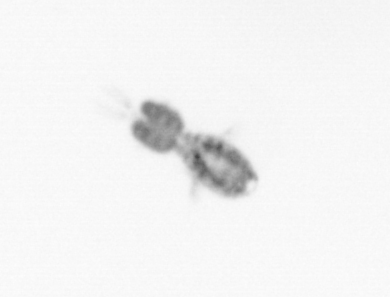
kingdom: Animalia
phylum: Arthropoda
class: Copepoda
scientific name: Copepoda
